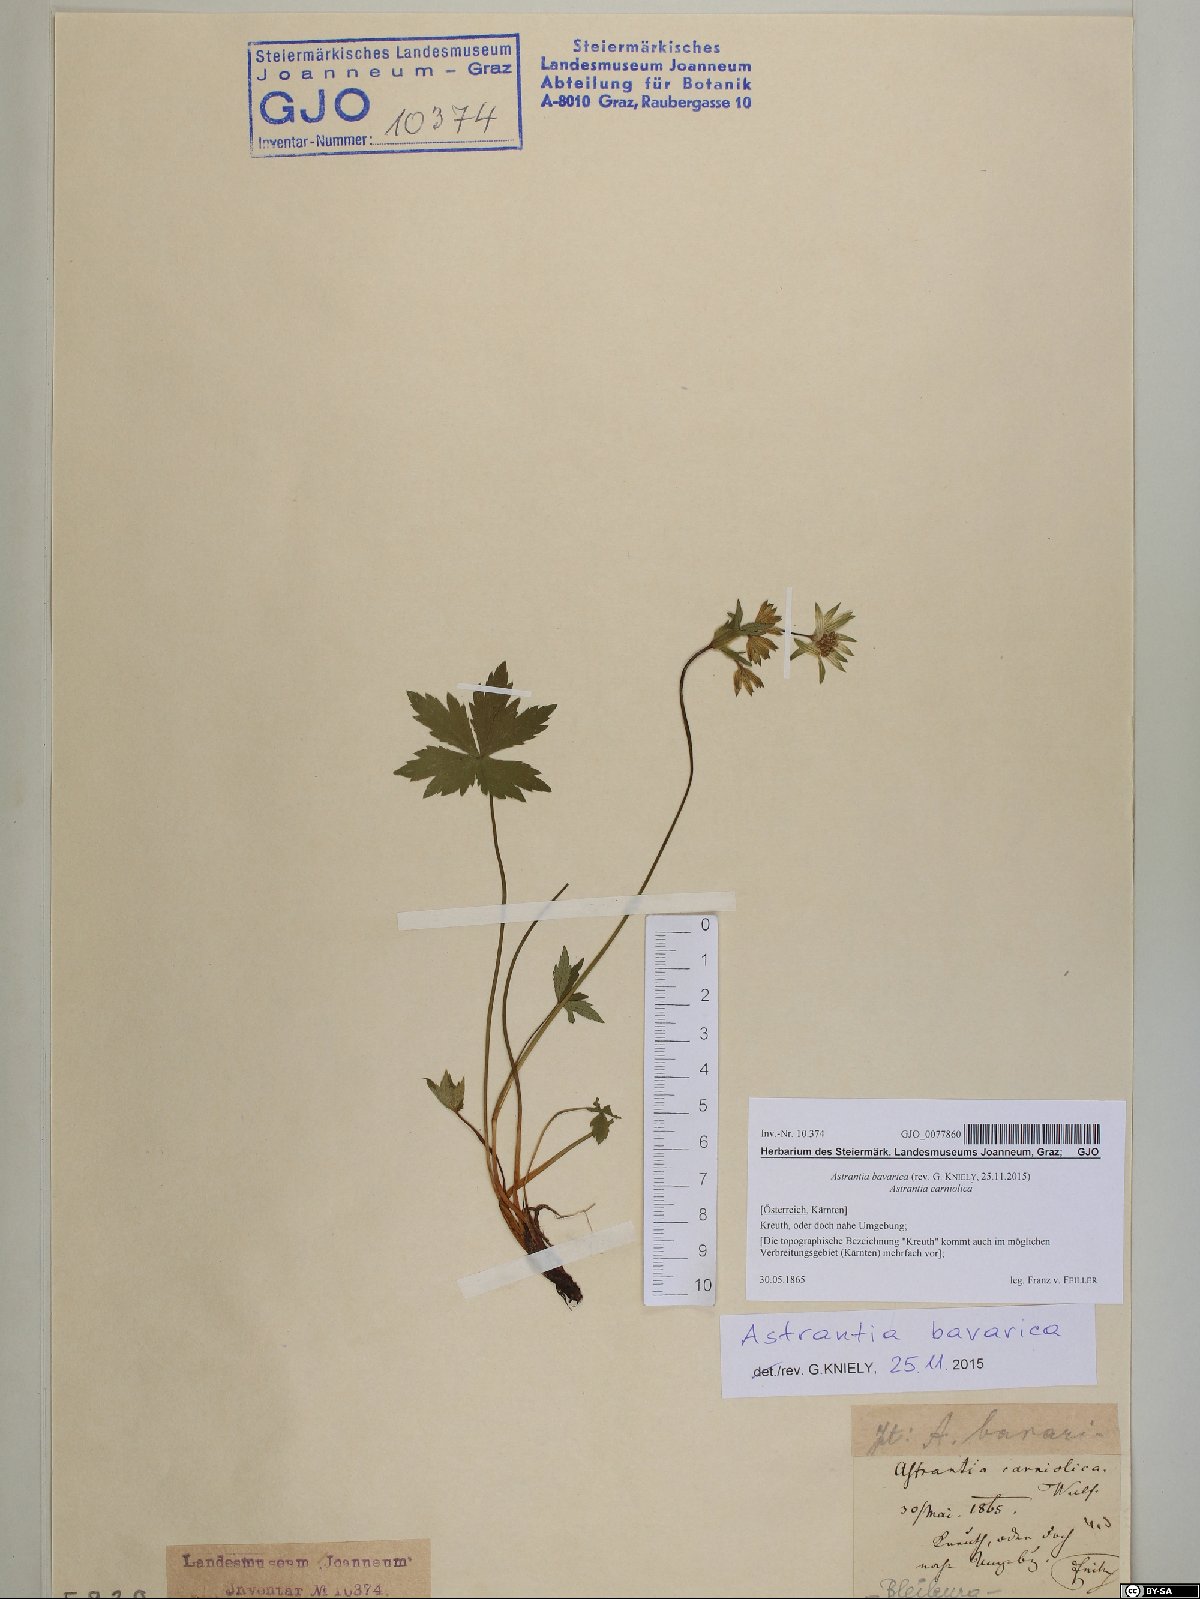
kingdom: Plantae
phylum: Tracheophyta
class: Magnoliopsida
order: Apiales
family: Apiaceae
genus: Astrantia
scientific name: Astrantia bavarica
